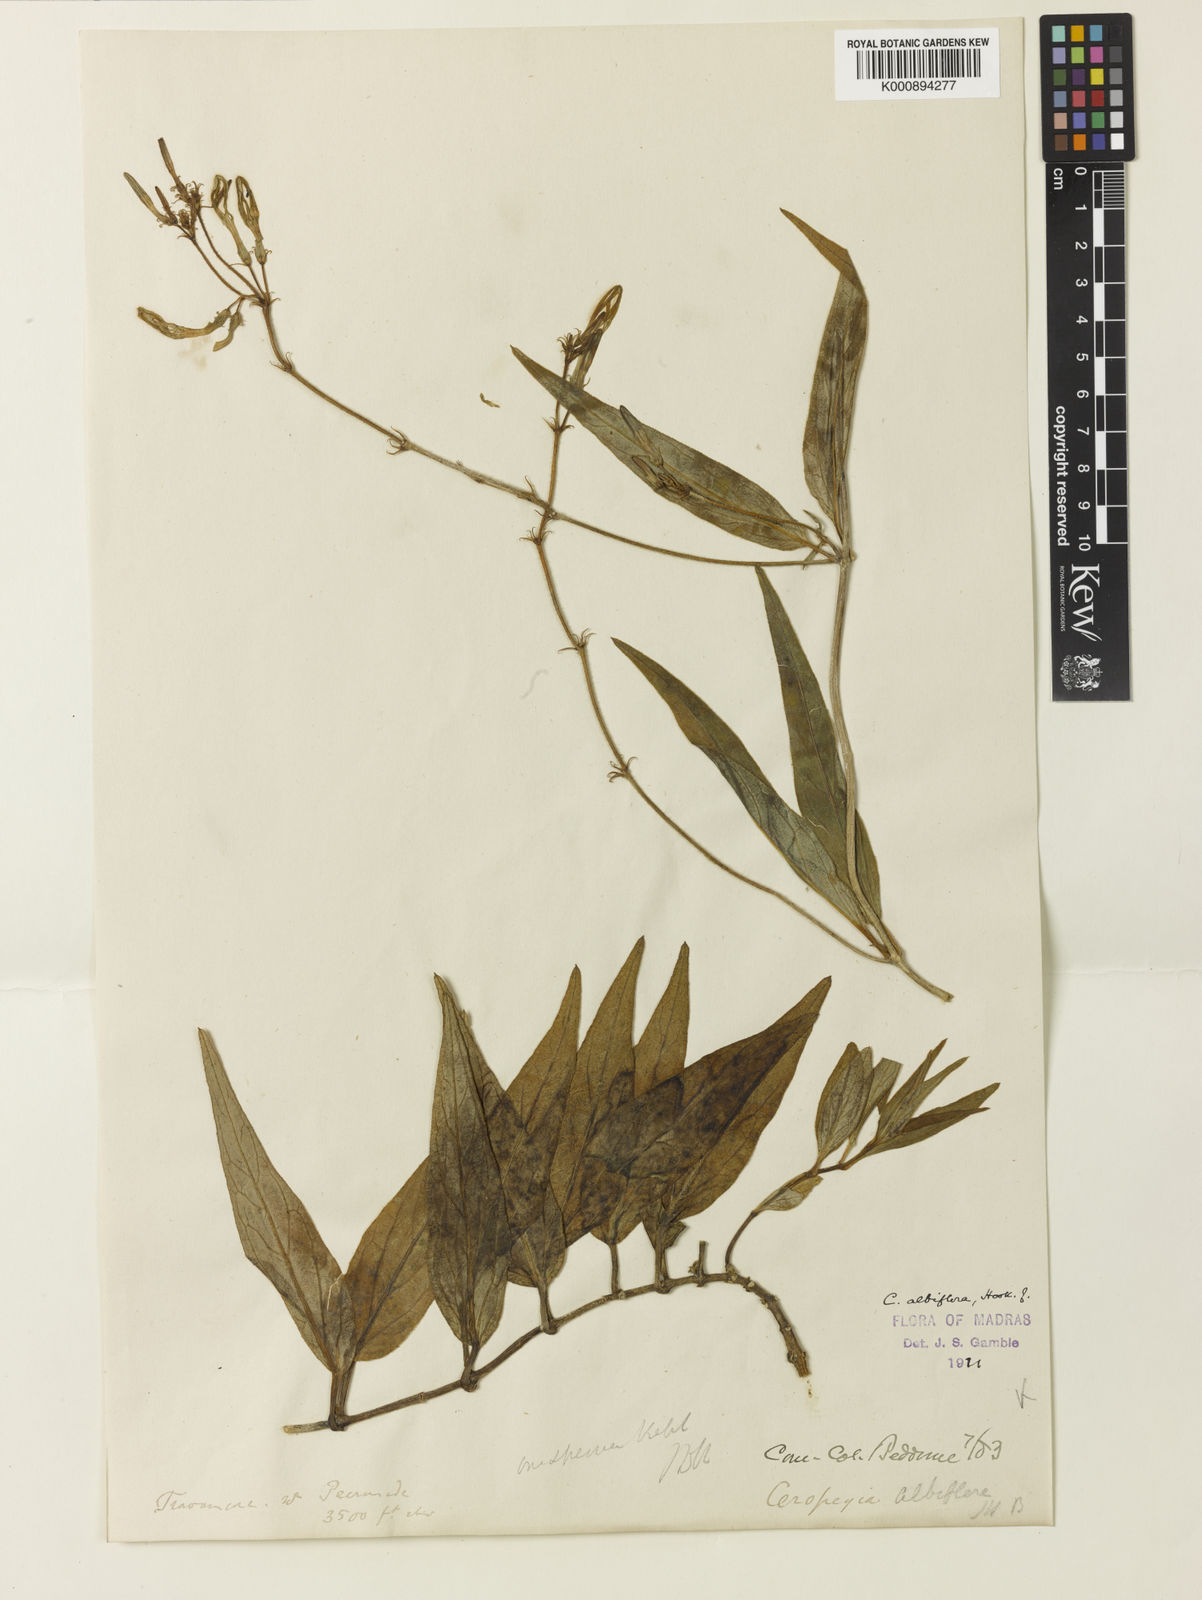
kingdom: Plantae
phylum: Tracheophyta
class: Magnoliopsida
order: Gentianales
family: Apocynaceae
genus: Ceropegia
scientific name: Ceropegia ciliata
